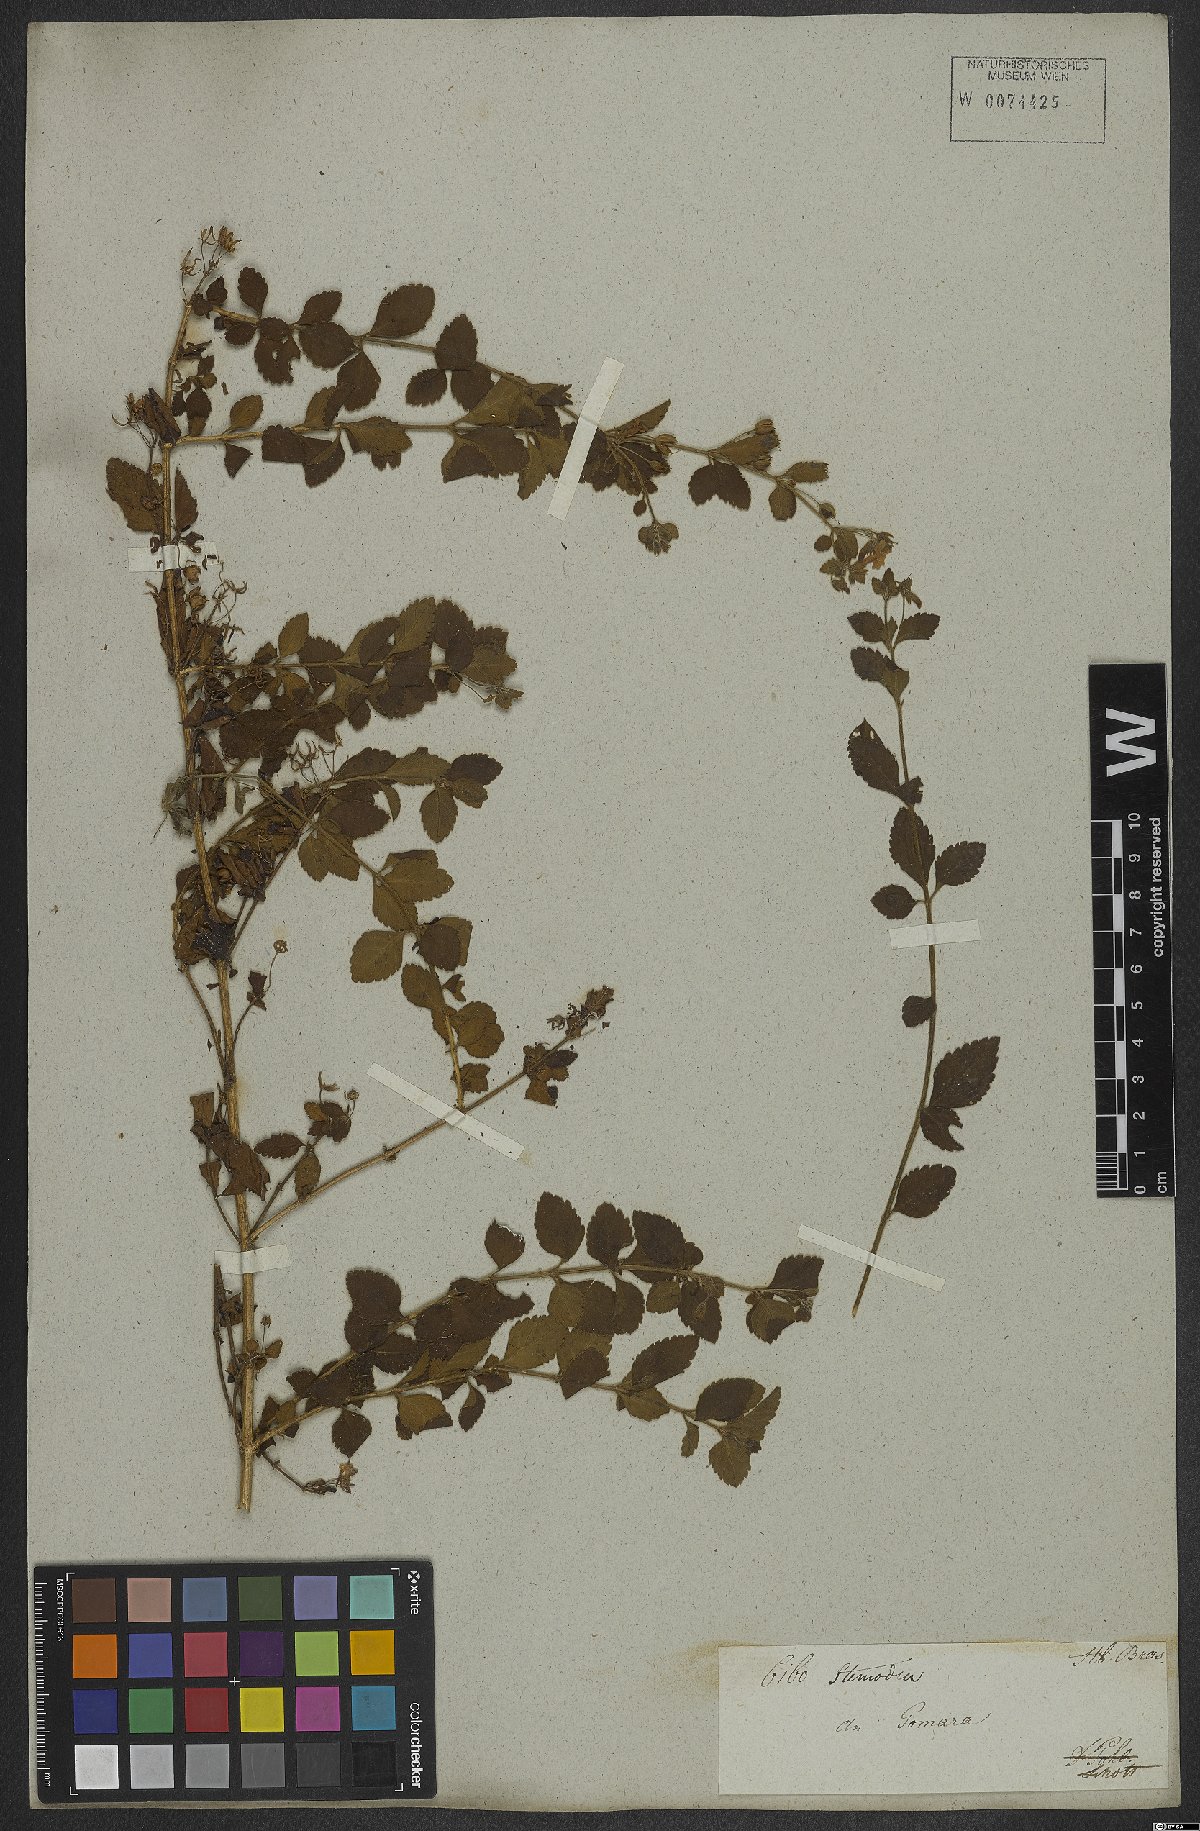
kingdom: Plantae
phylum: Tracheophyta
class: Magnoliopsida
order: Lamiales
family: Plantaginaceae
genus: Stemodia
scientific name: Stemodia trifoliata
